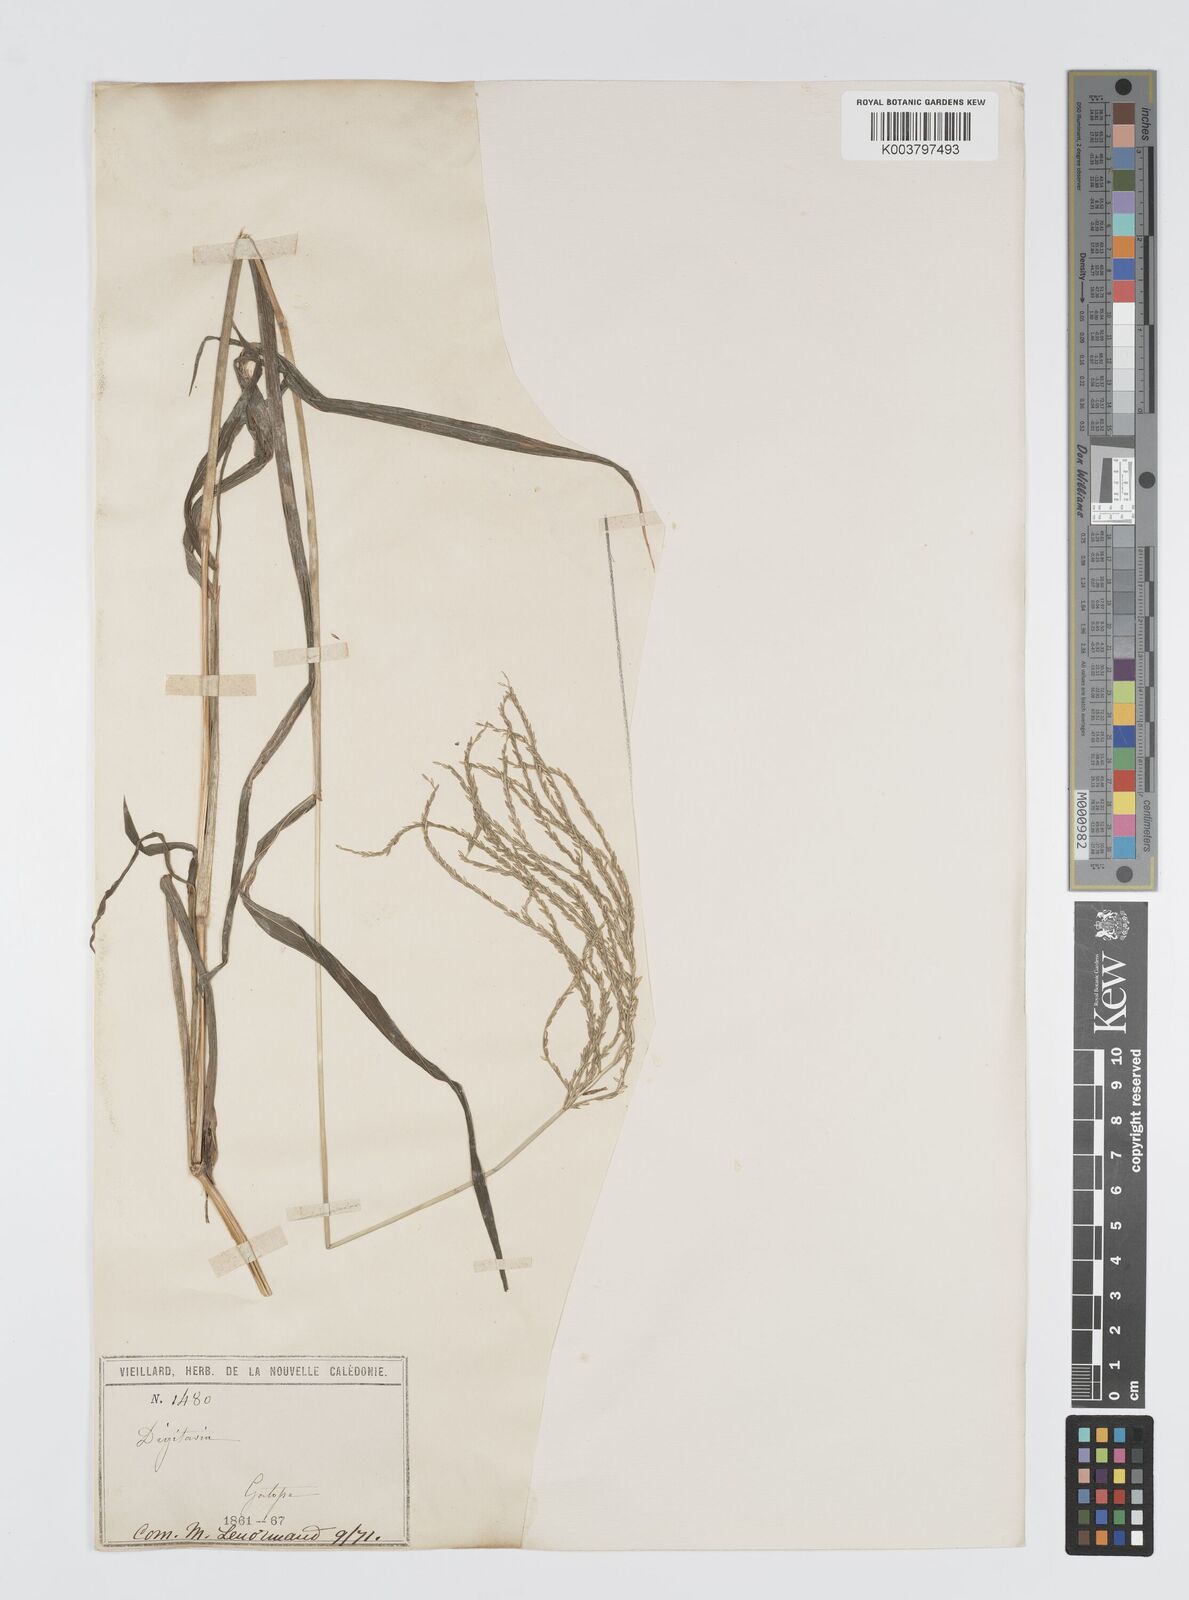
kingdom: Plantae
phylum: Tracheophyta
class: Liliopsida
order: Poales
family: Poaceae
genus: Digitaria
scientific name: Digitaria setigera
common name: East indian crabgrass
